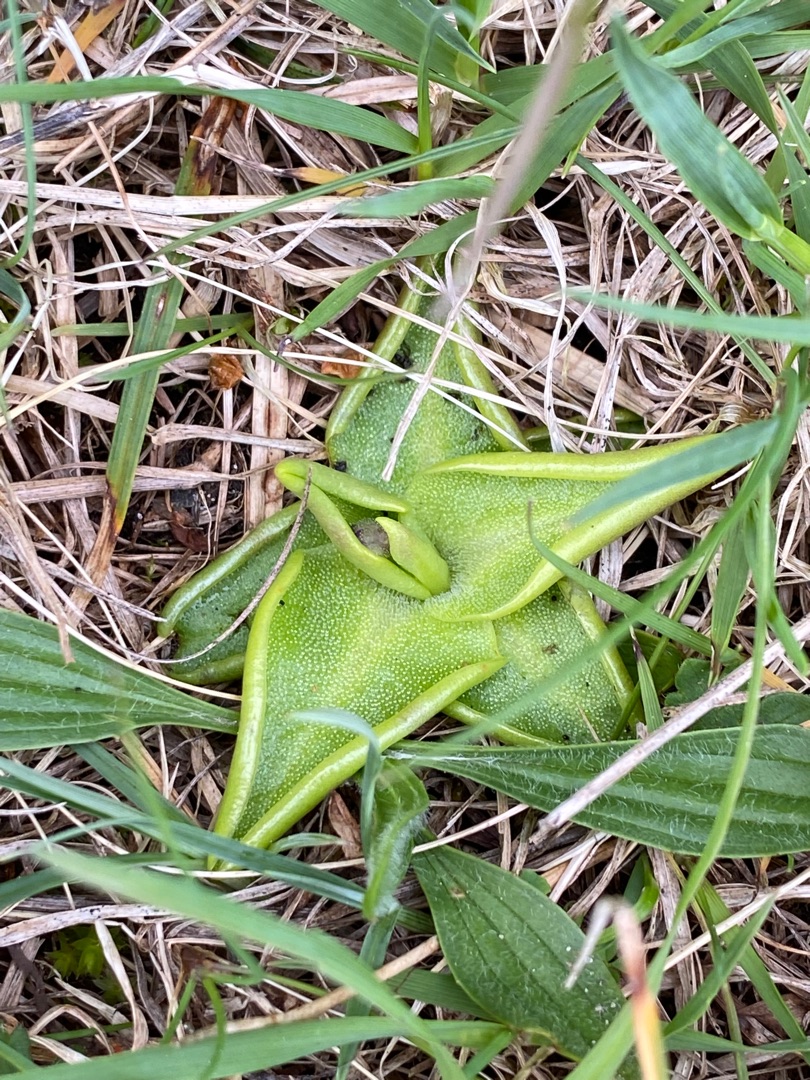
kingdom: Plantae
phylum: Tracheophyta
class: Magnoliopsida
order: Lamiales
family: Lentibulariaceae
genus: Pinguicula
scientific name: Pinguicula vulgaris
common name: Vibefedt
